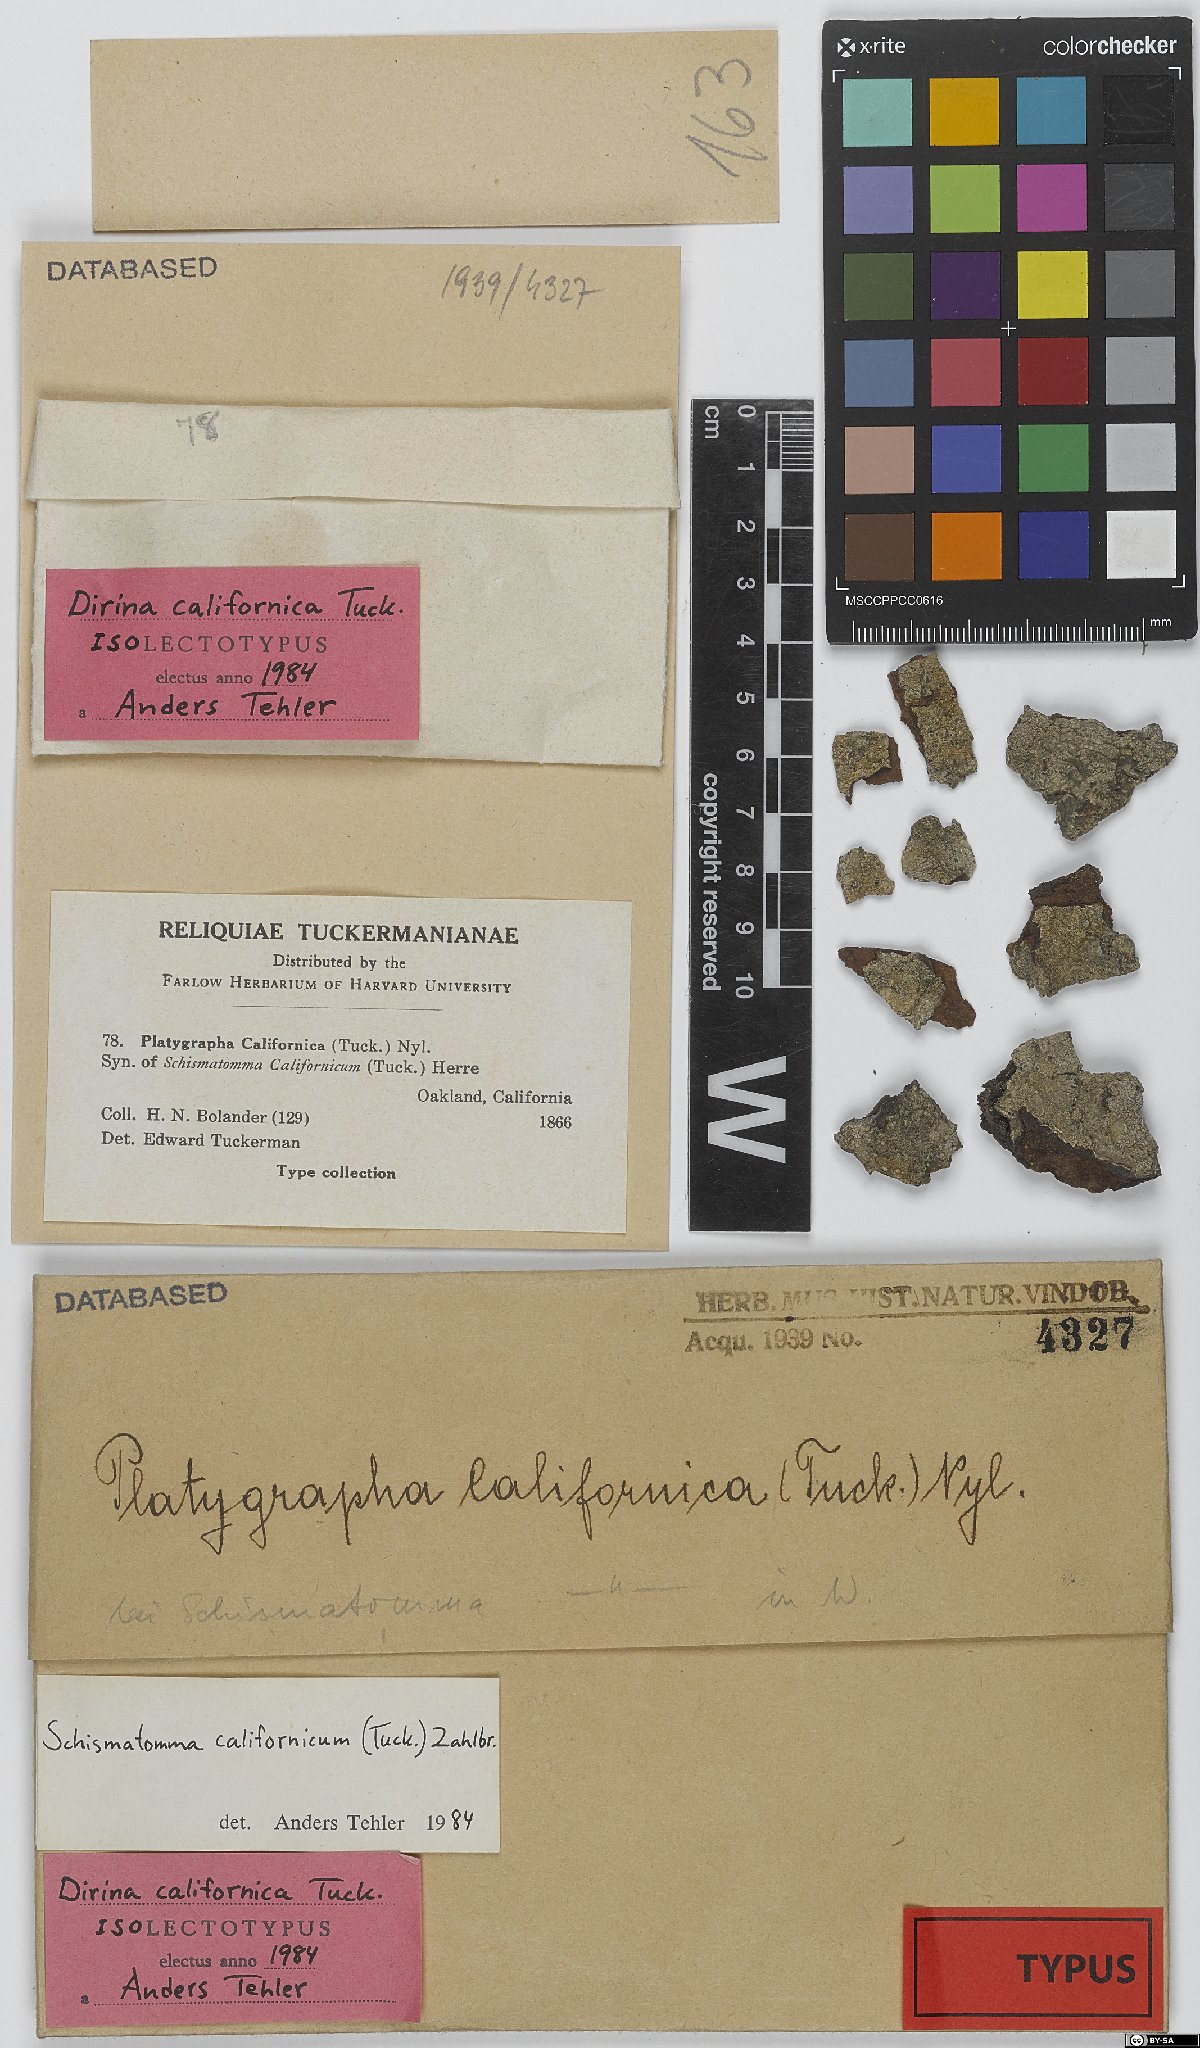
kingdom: Fungi
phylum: Ascomycota
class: Arthoniomycetes
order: Arthoniales
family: Roccellaceae
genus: Sigridea
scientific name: Sigridea californica
